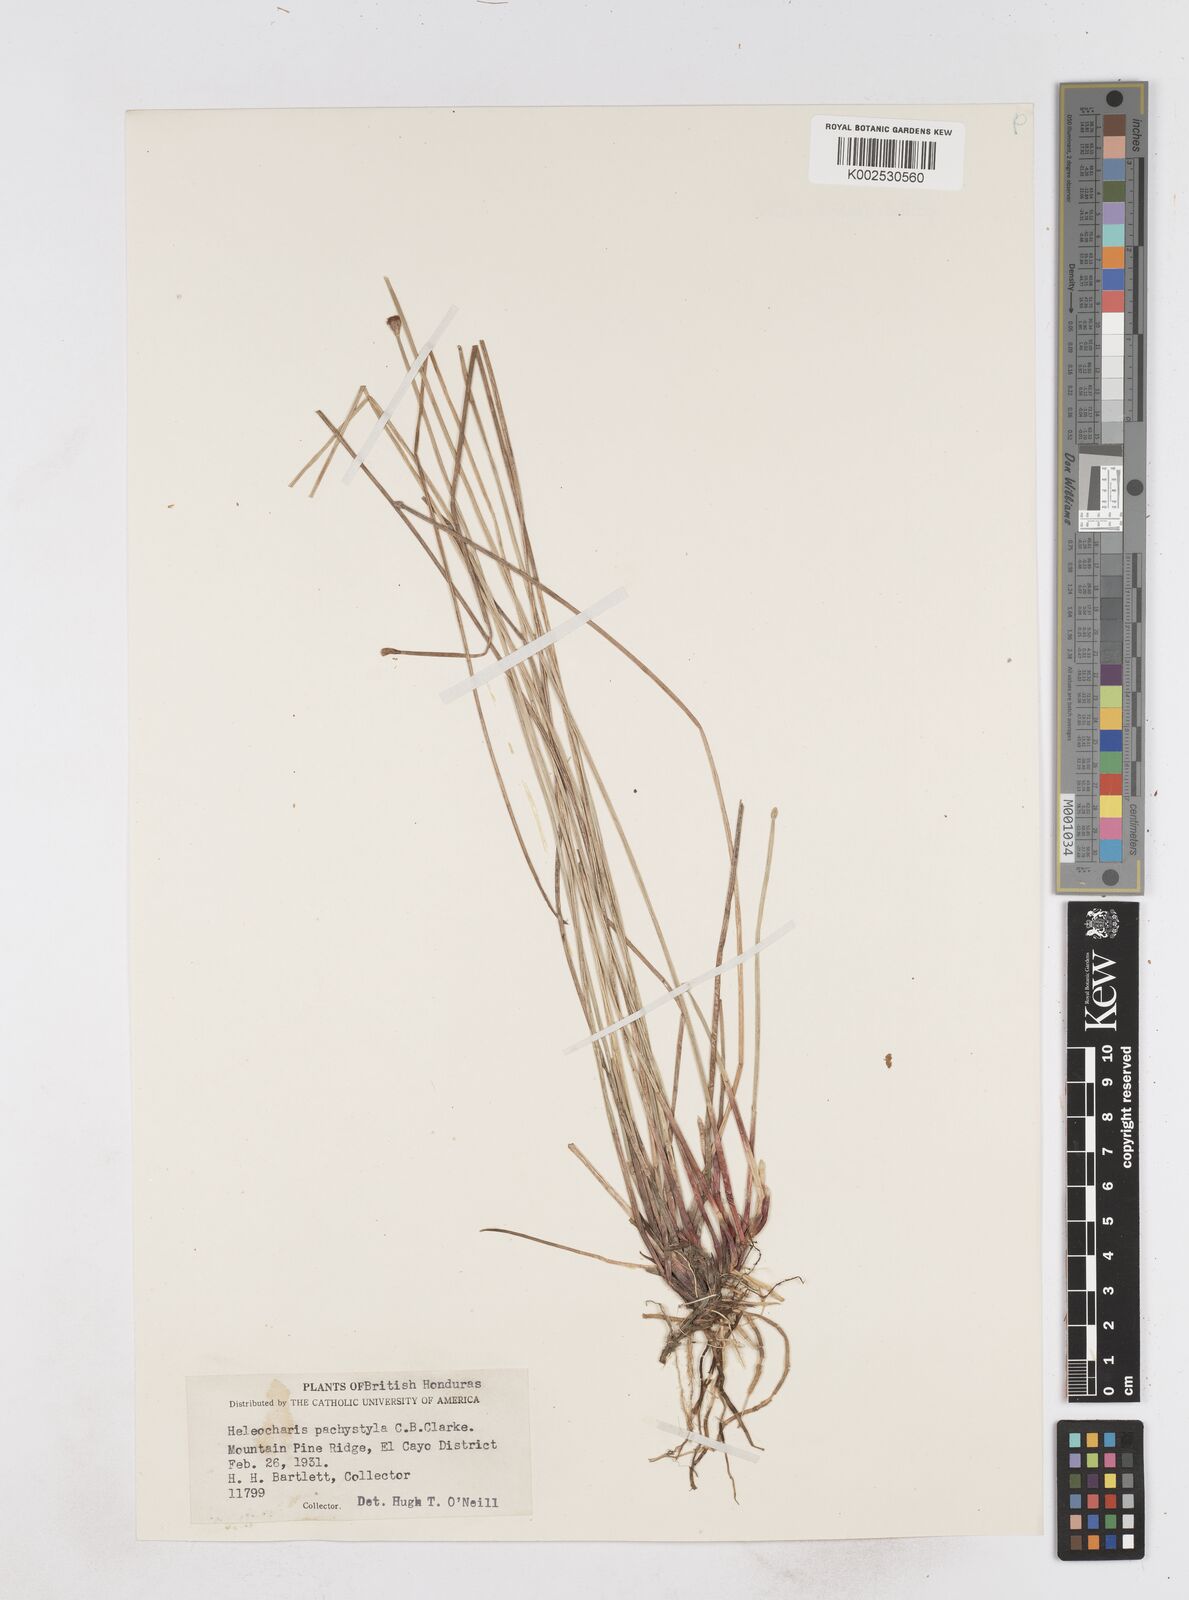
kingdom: Plantae
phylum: Tracheophyta
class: Liliopsida
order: Poales
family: Cyperaceae
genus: Eleocharis
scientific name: Eleocharis pachystyla
